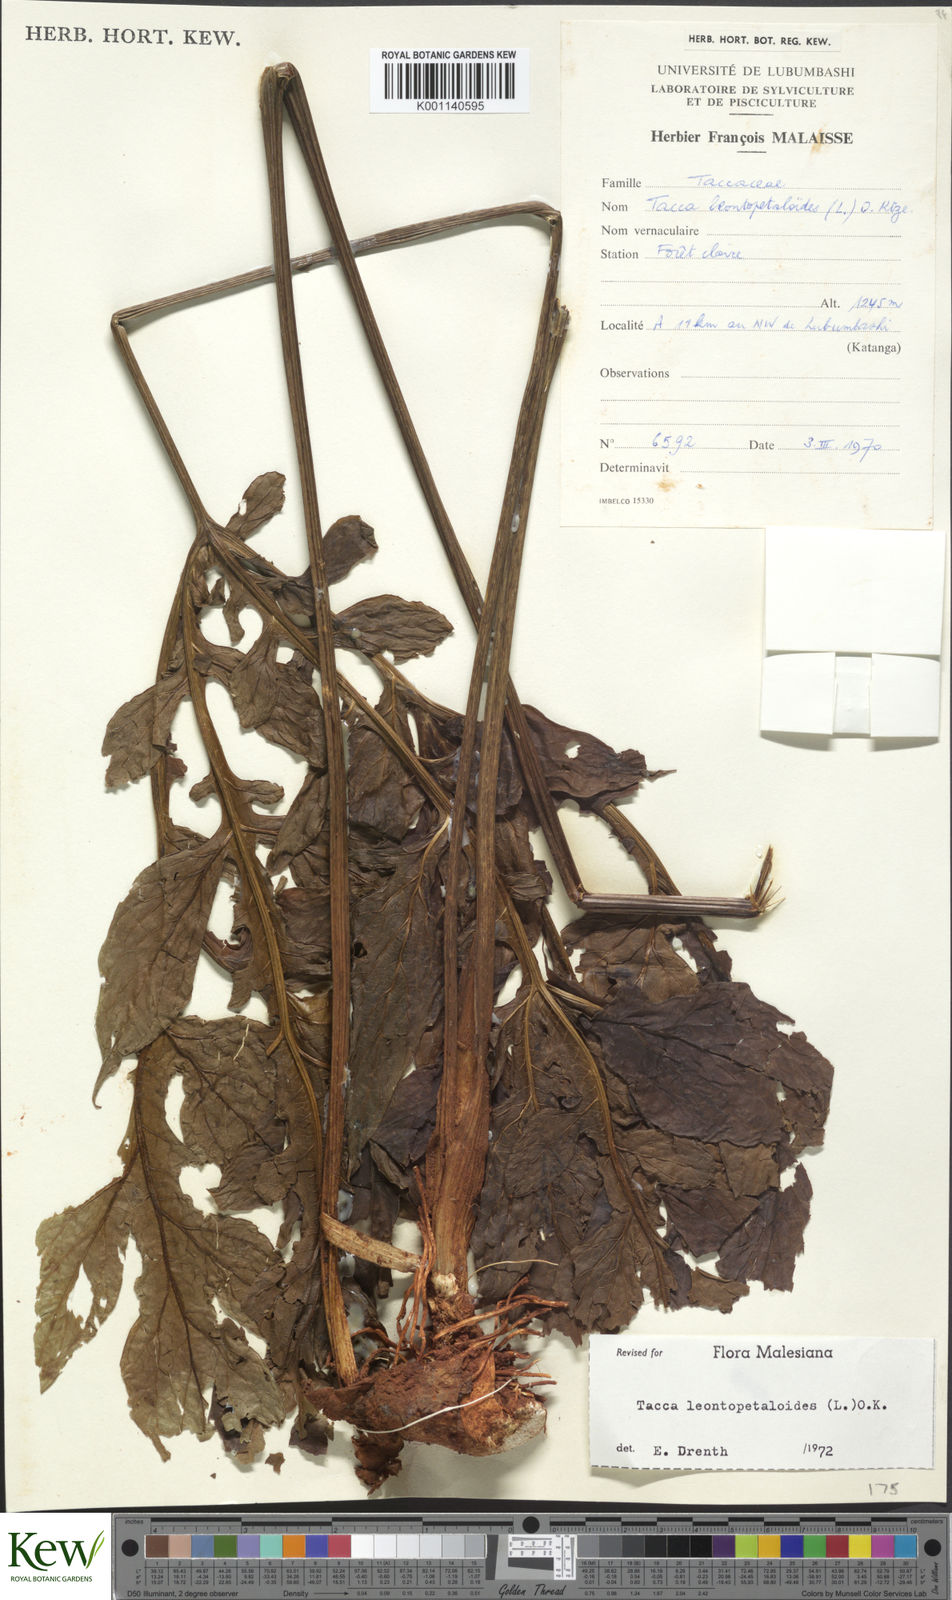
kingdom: Plantae
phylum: Tracheophyta
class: Liliopsida
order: Dioscoreales
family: Dioscoreaceae
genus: Tacca
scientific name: Tacca leontopetaloides
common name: Arrowroot
